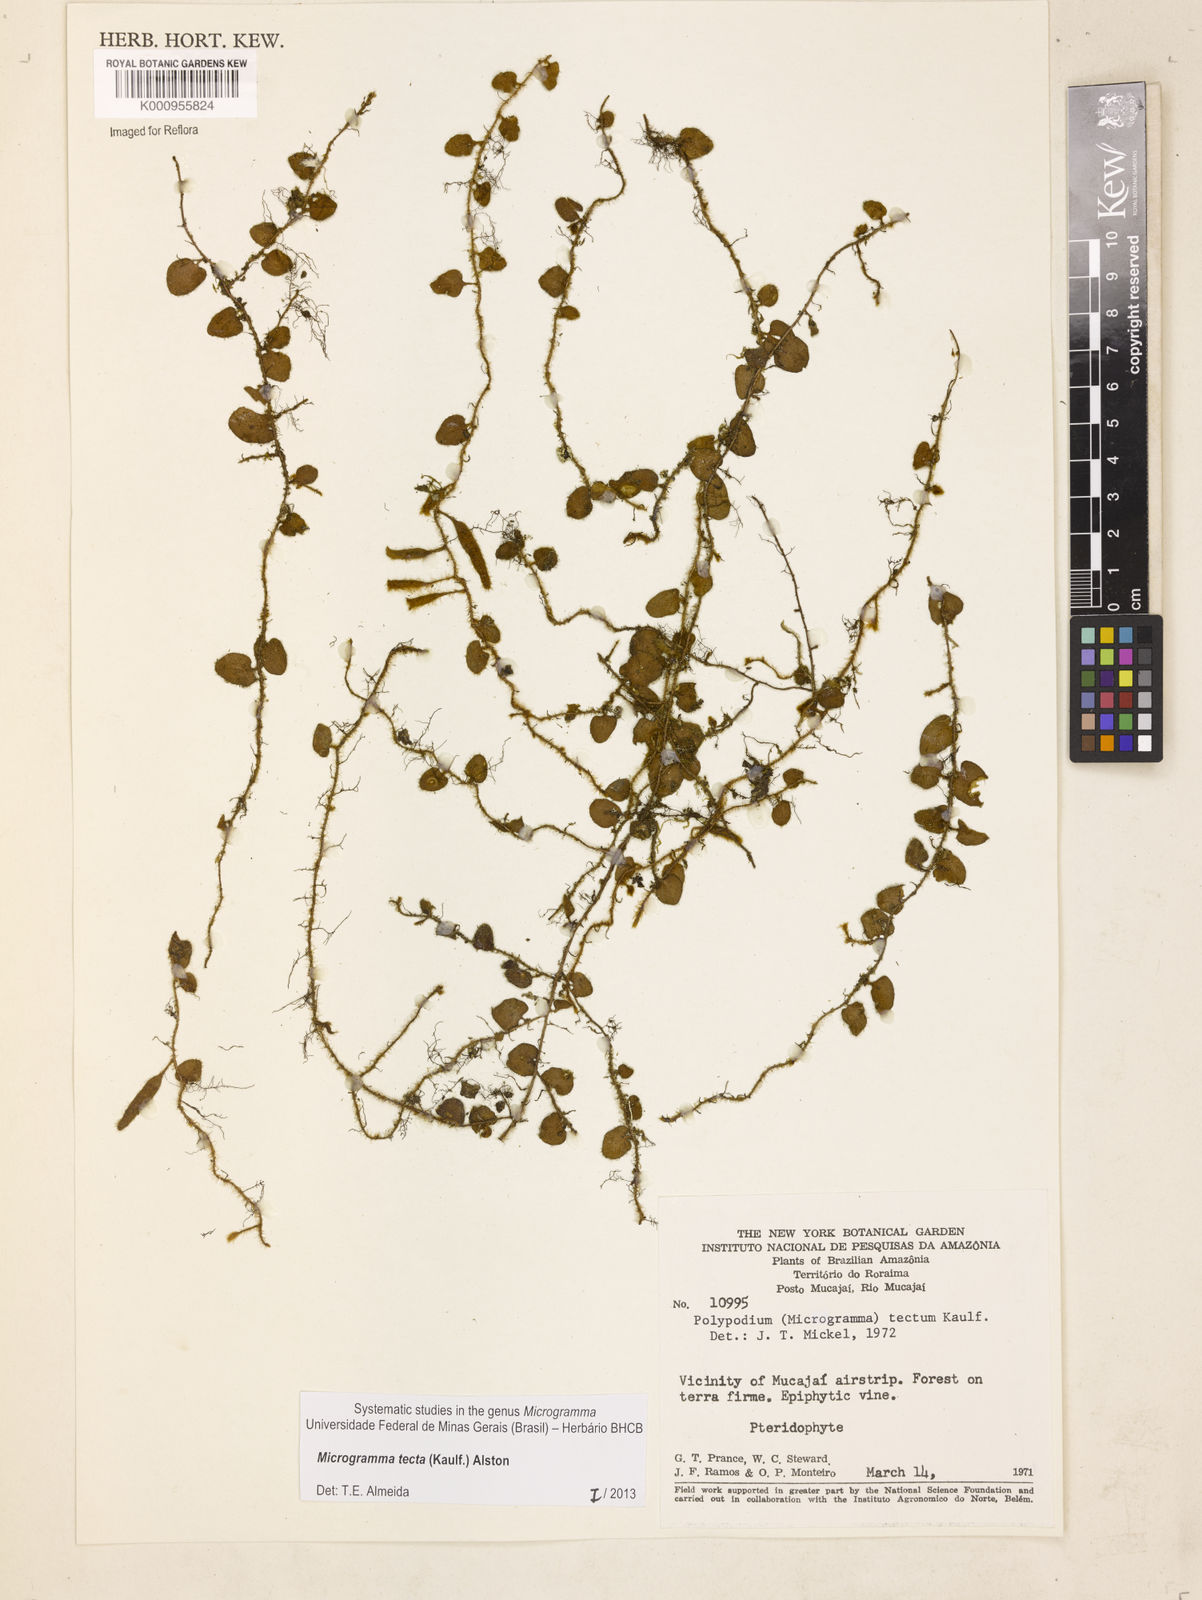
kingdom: Plantae
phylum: Tracheophyta
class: Polypodiopsida
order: Polypodiales
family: Polypodiaceae
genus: Microgramma
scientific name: Microgramma tecta
